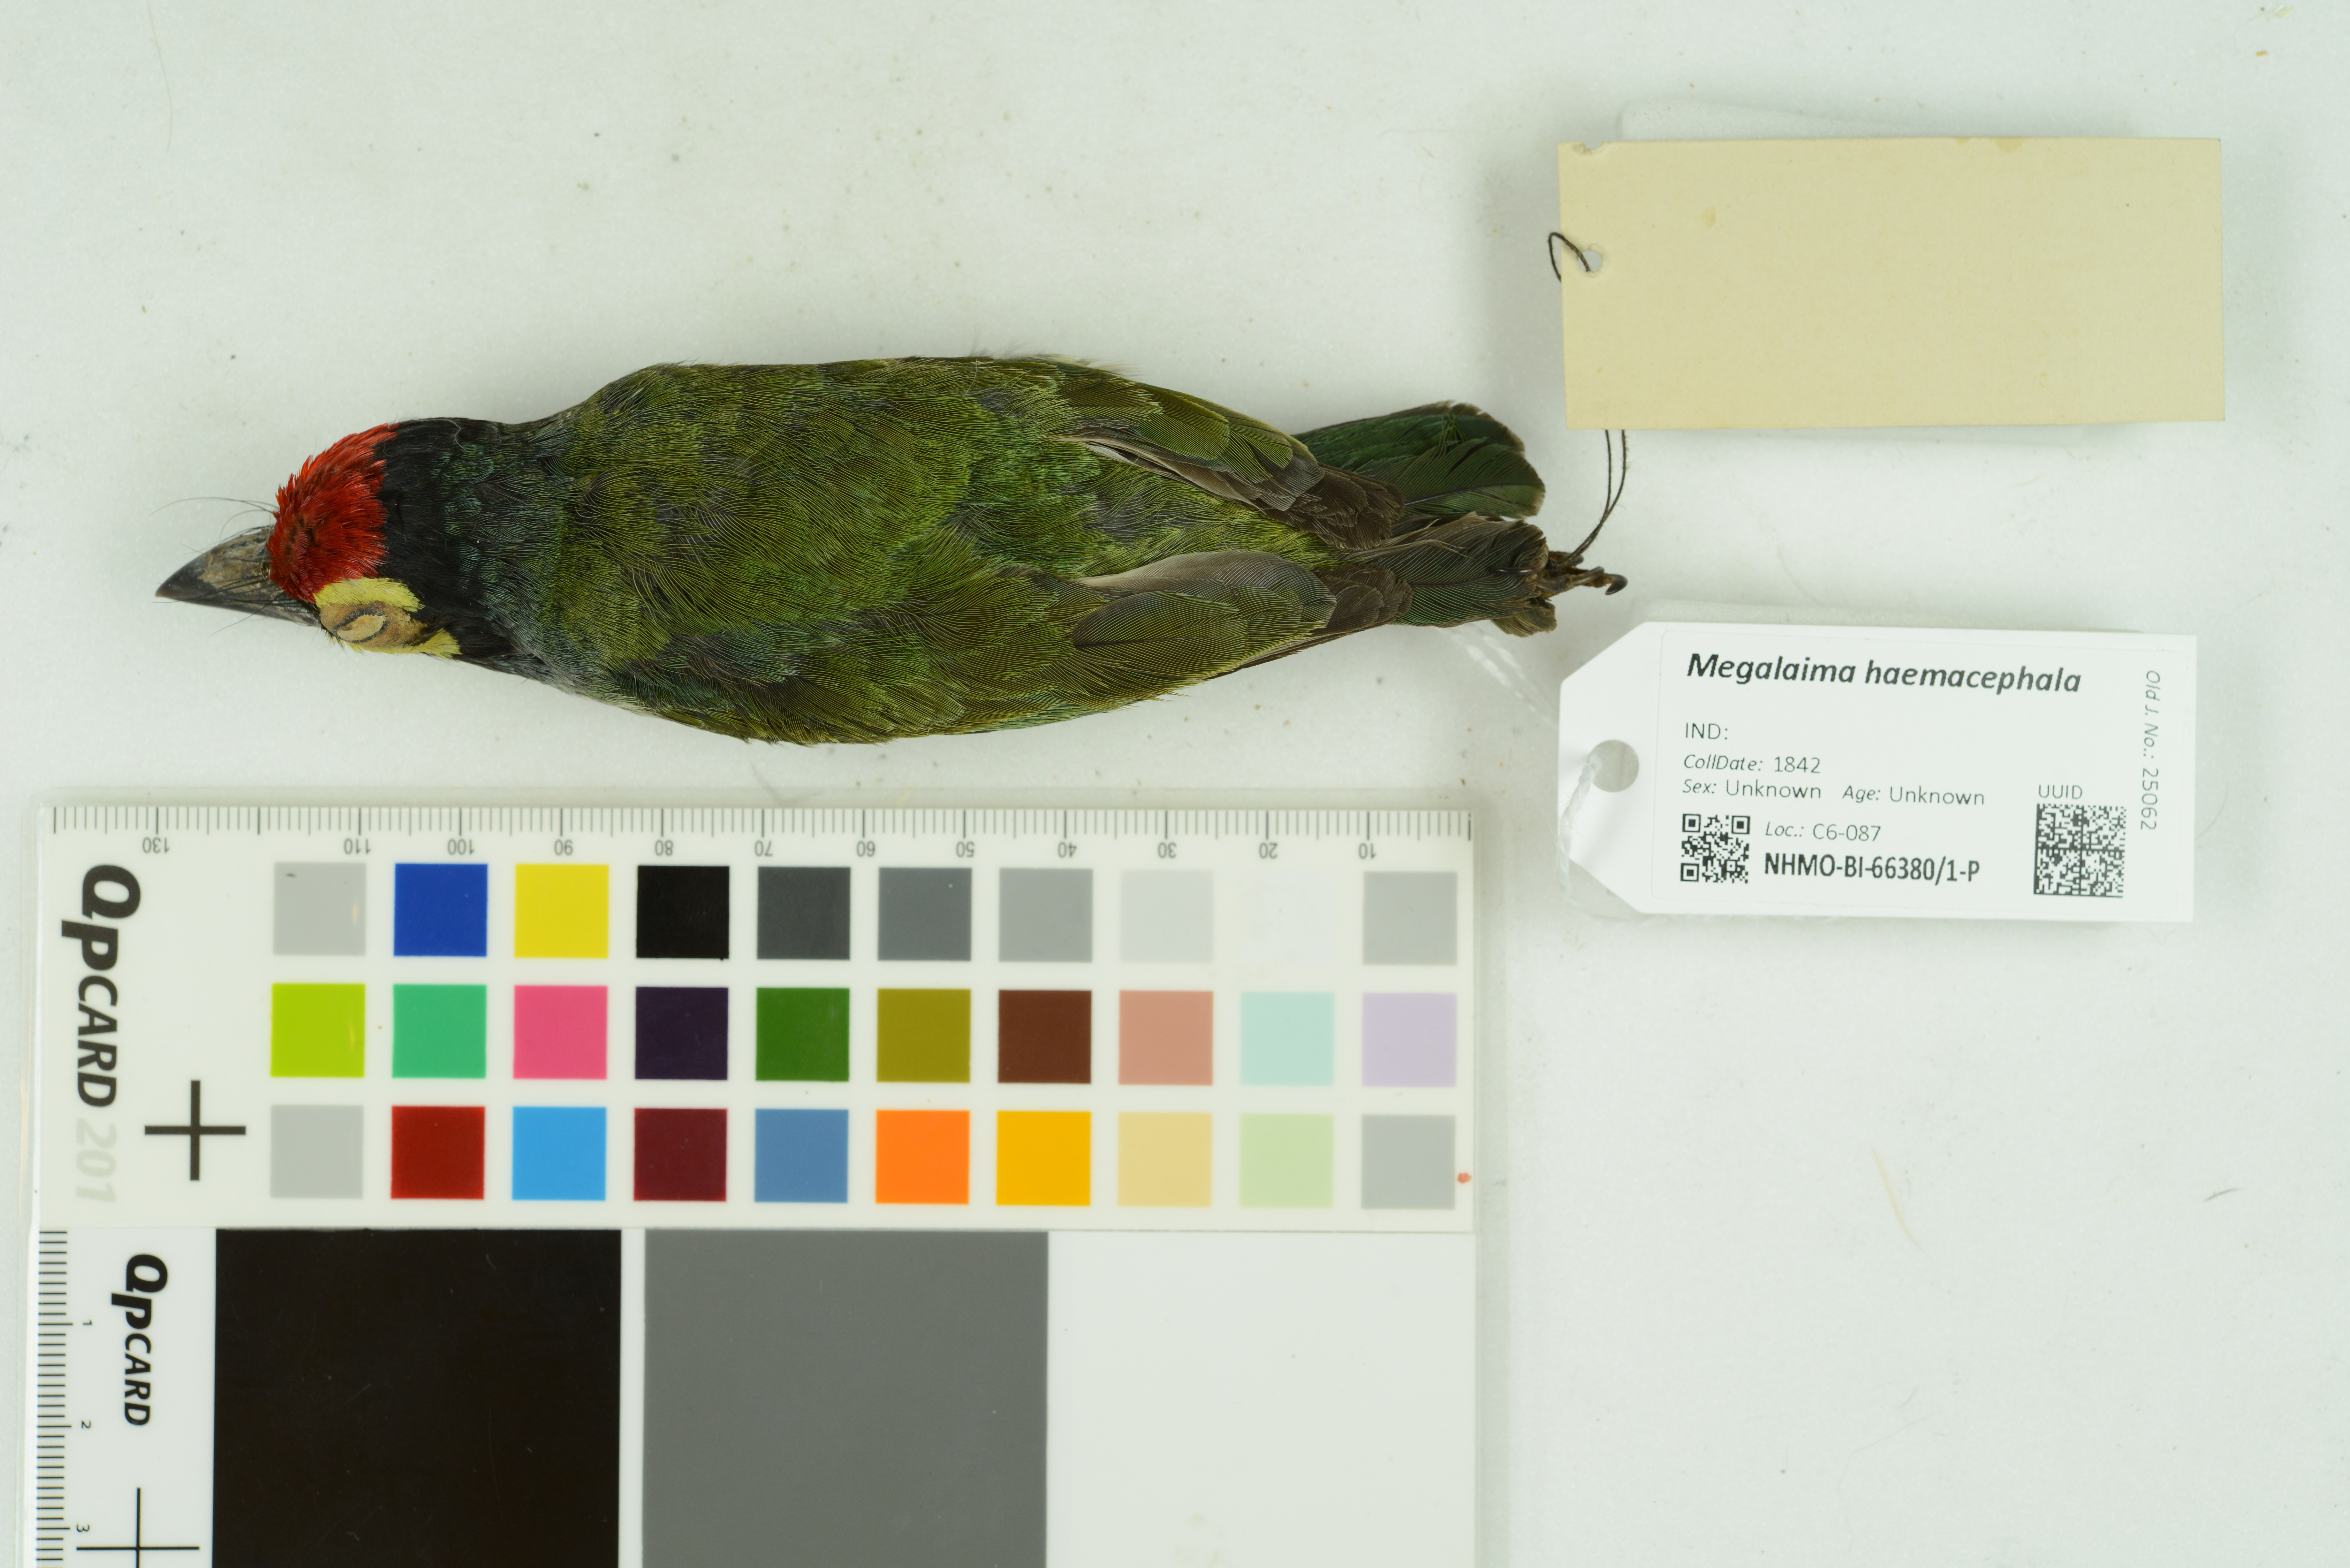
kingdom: Animalia
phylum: Chordata
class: Aves
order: Piciformes
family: Megalaimidae
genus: Psilopogon
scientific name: Psilopogon haemacephalus
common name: Coppersmith barbet
